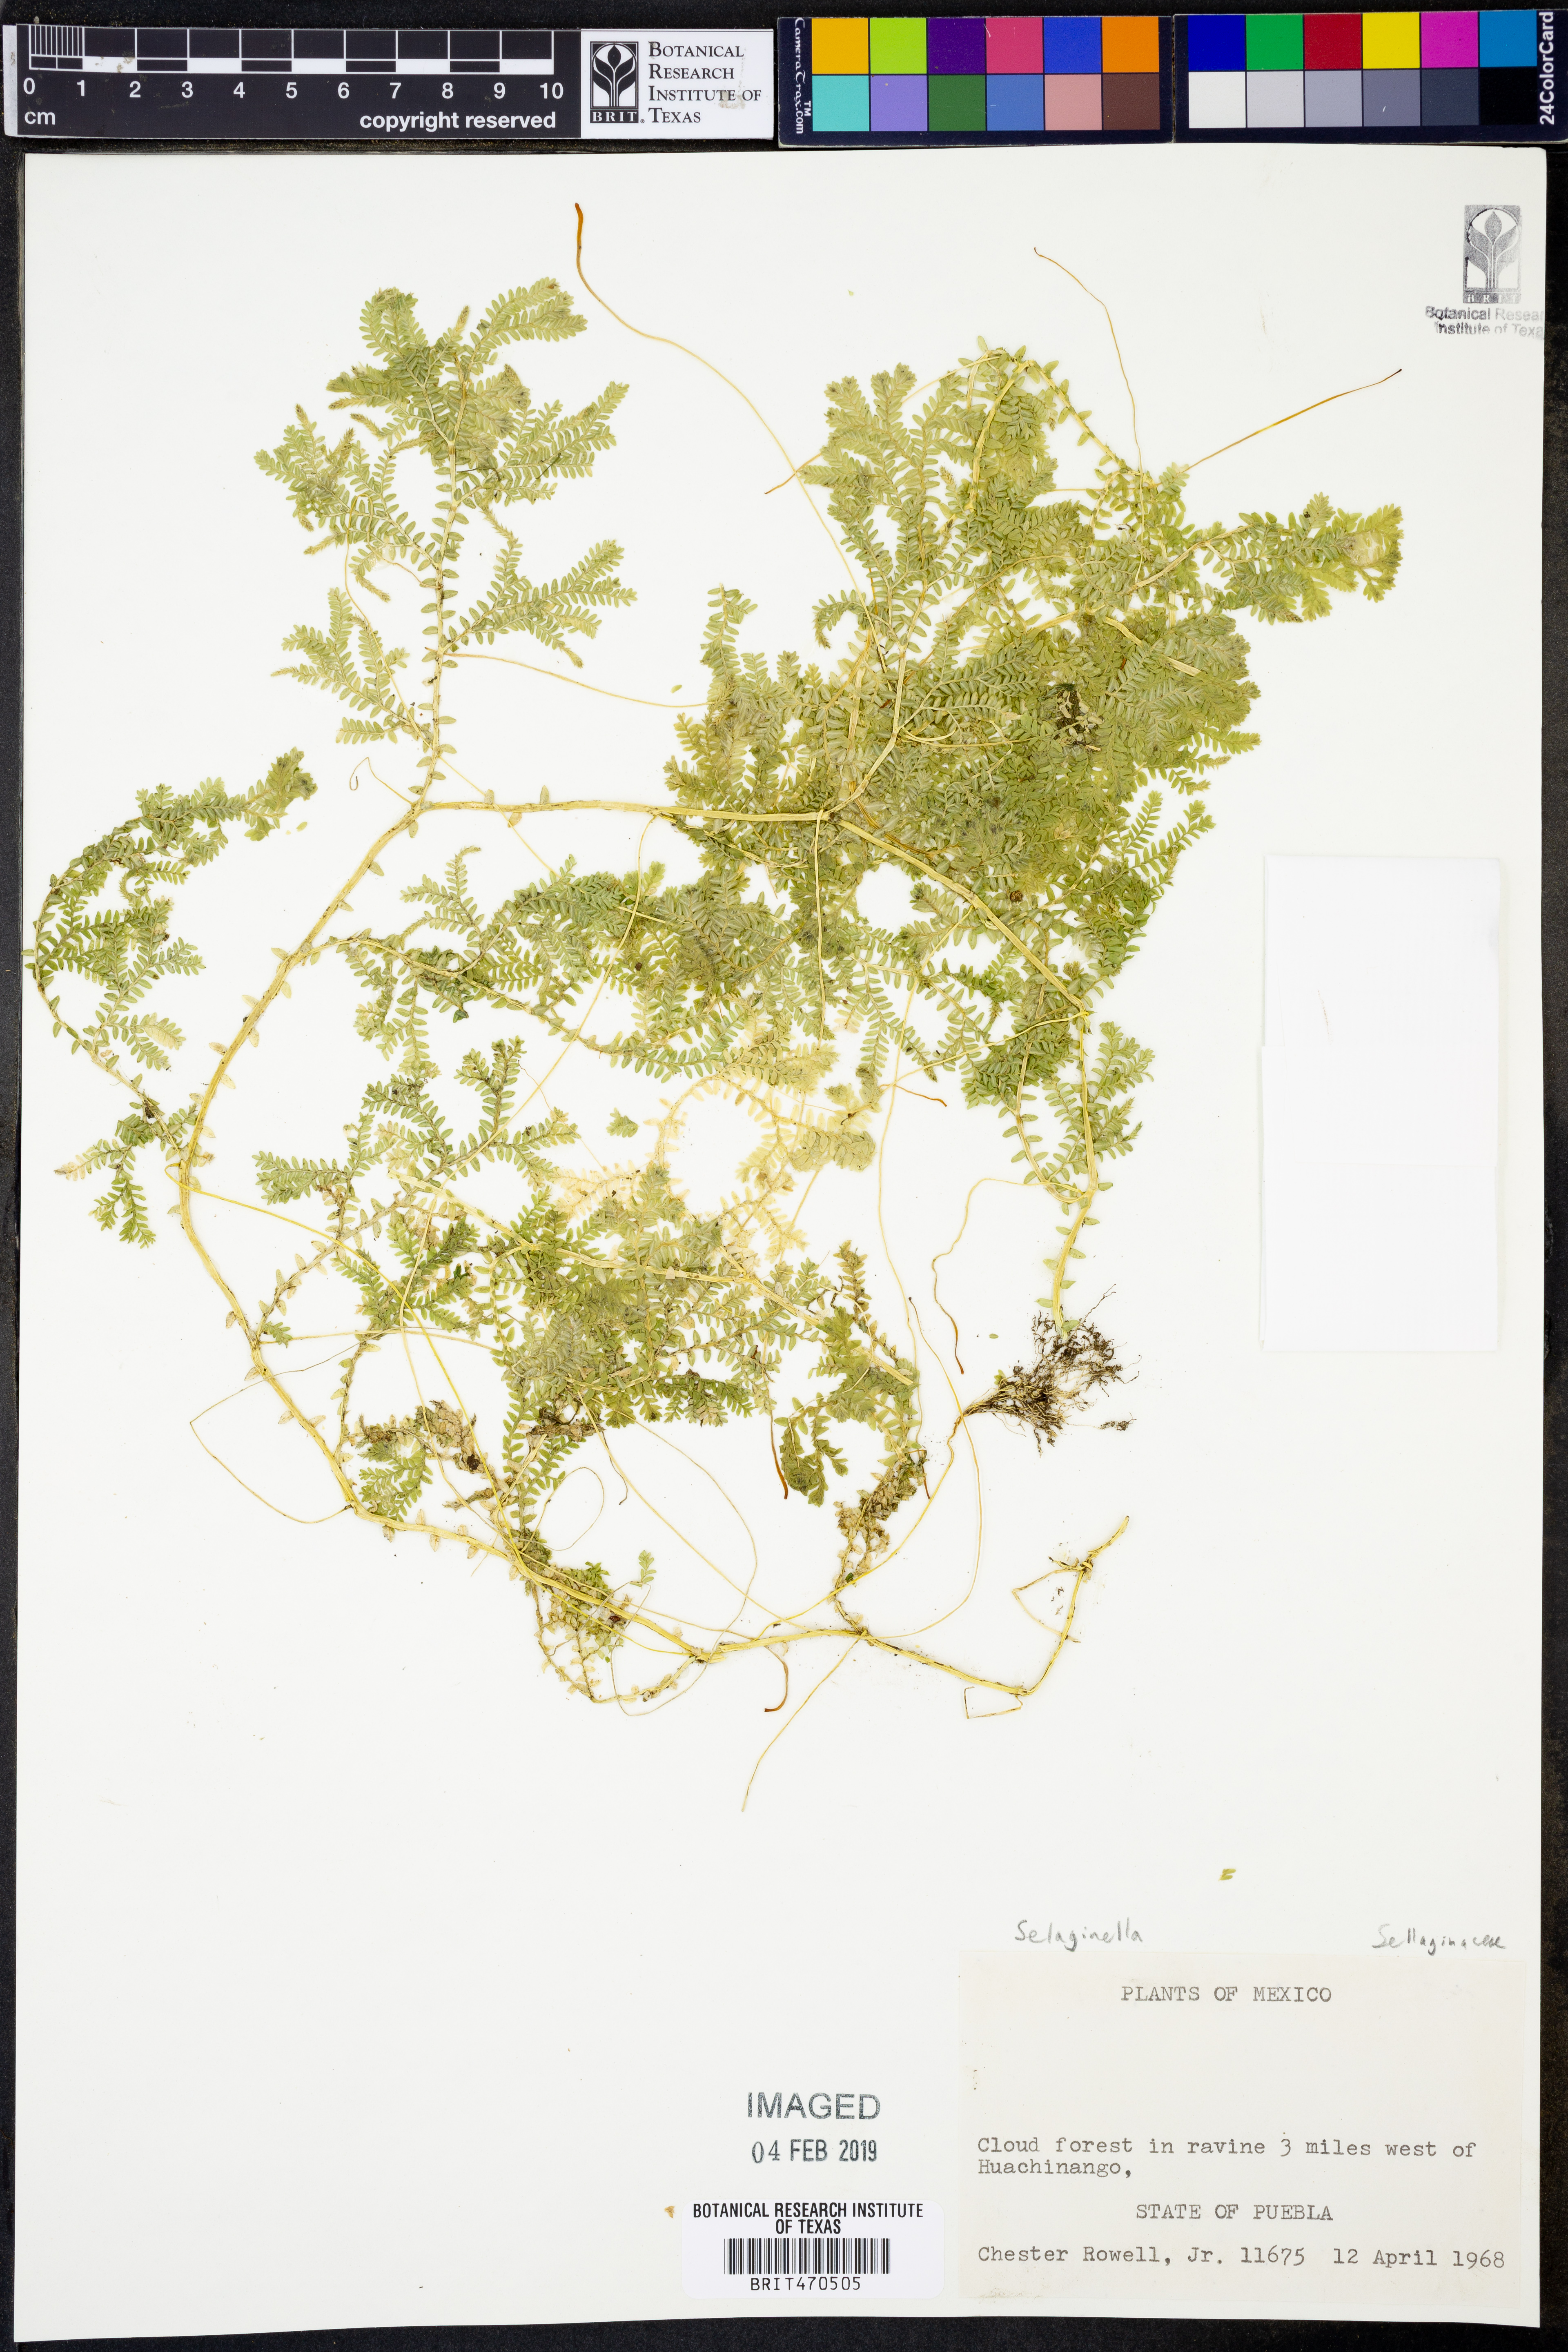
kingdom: Plantae
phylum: Tracheophyta
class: Lycopodiopsida
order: Selaginellales
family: Selaginellaceae
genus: Selaginella
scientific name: Selaginella
